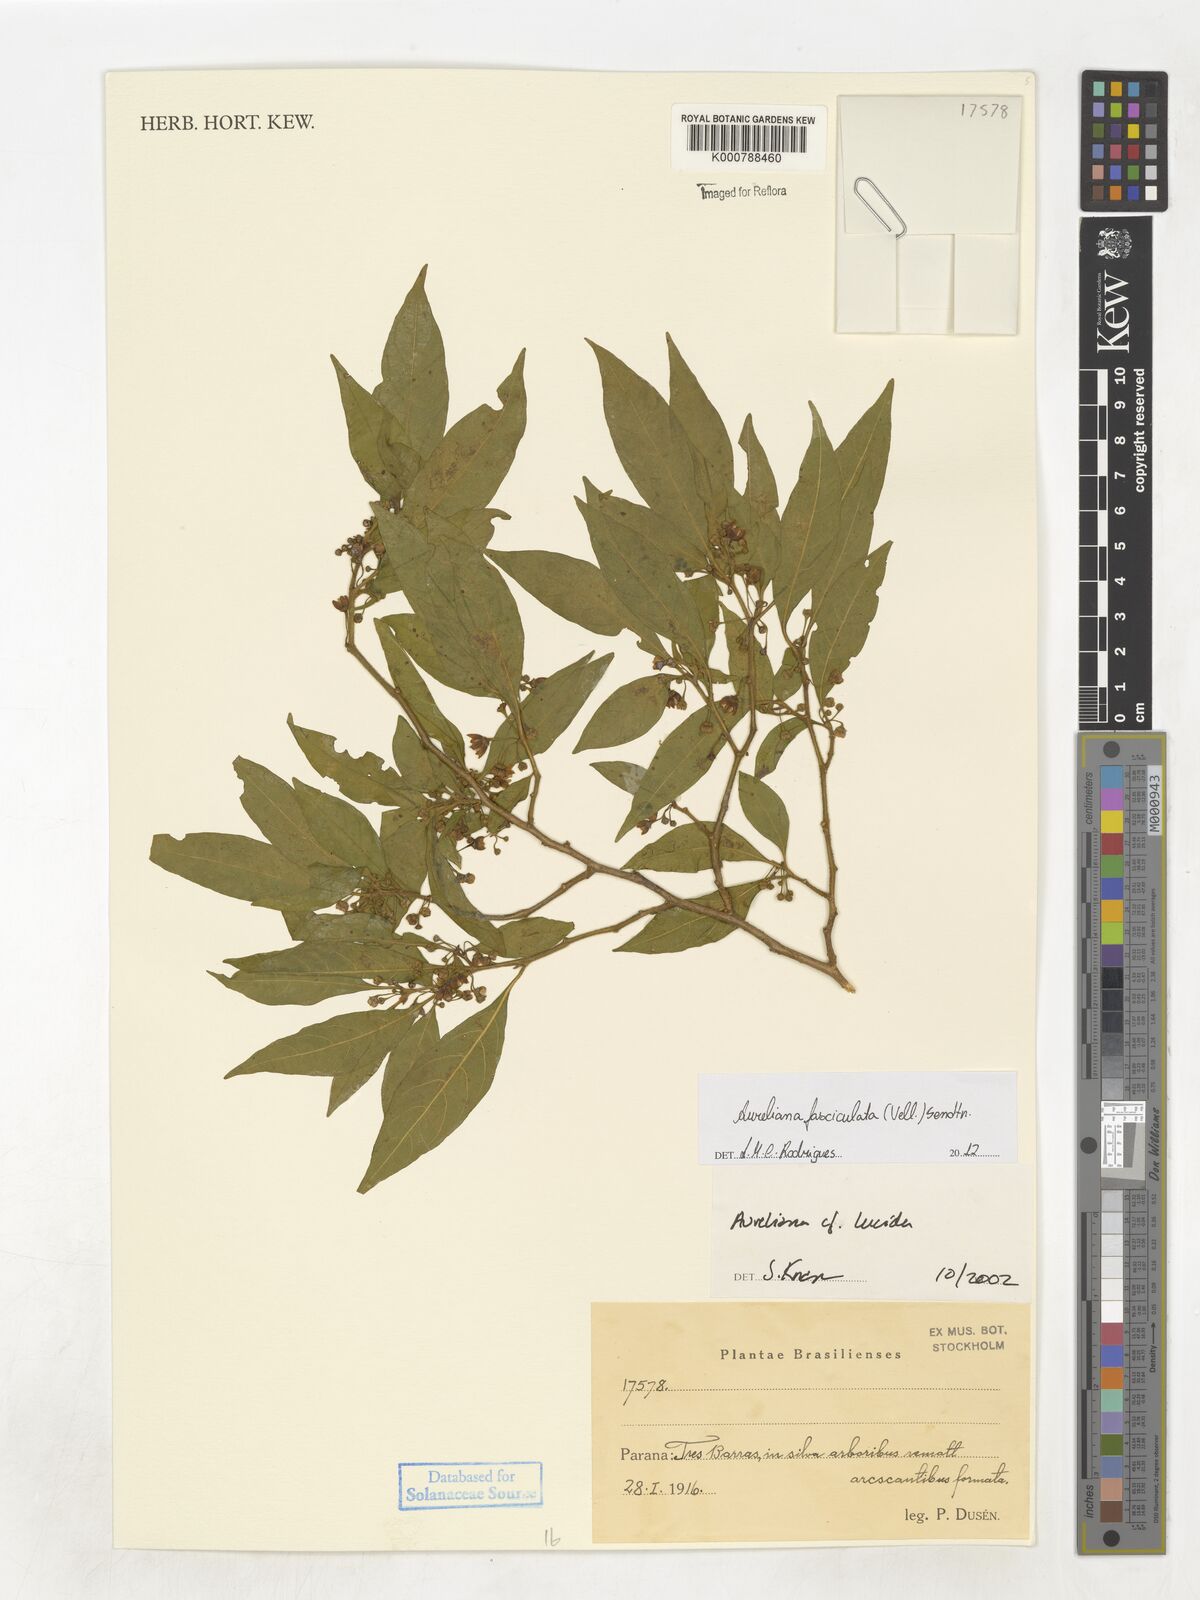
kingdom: Plantae
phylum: Tracheophyta
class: Magnoliopsida
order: Solanales
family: Solanaceae
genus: Athenaea
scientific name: Athenaea fasciculata
